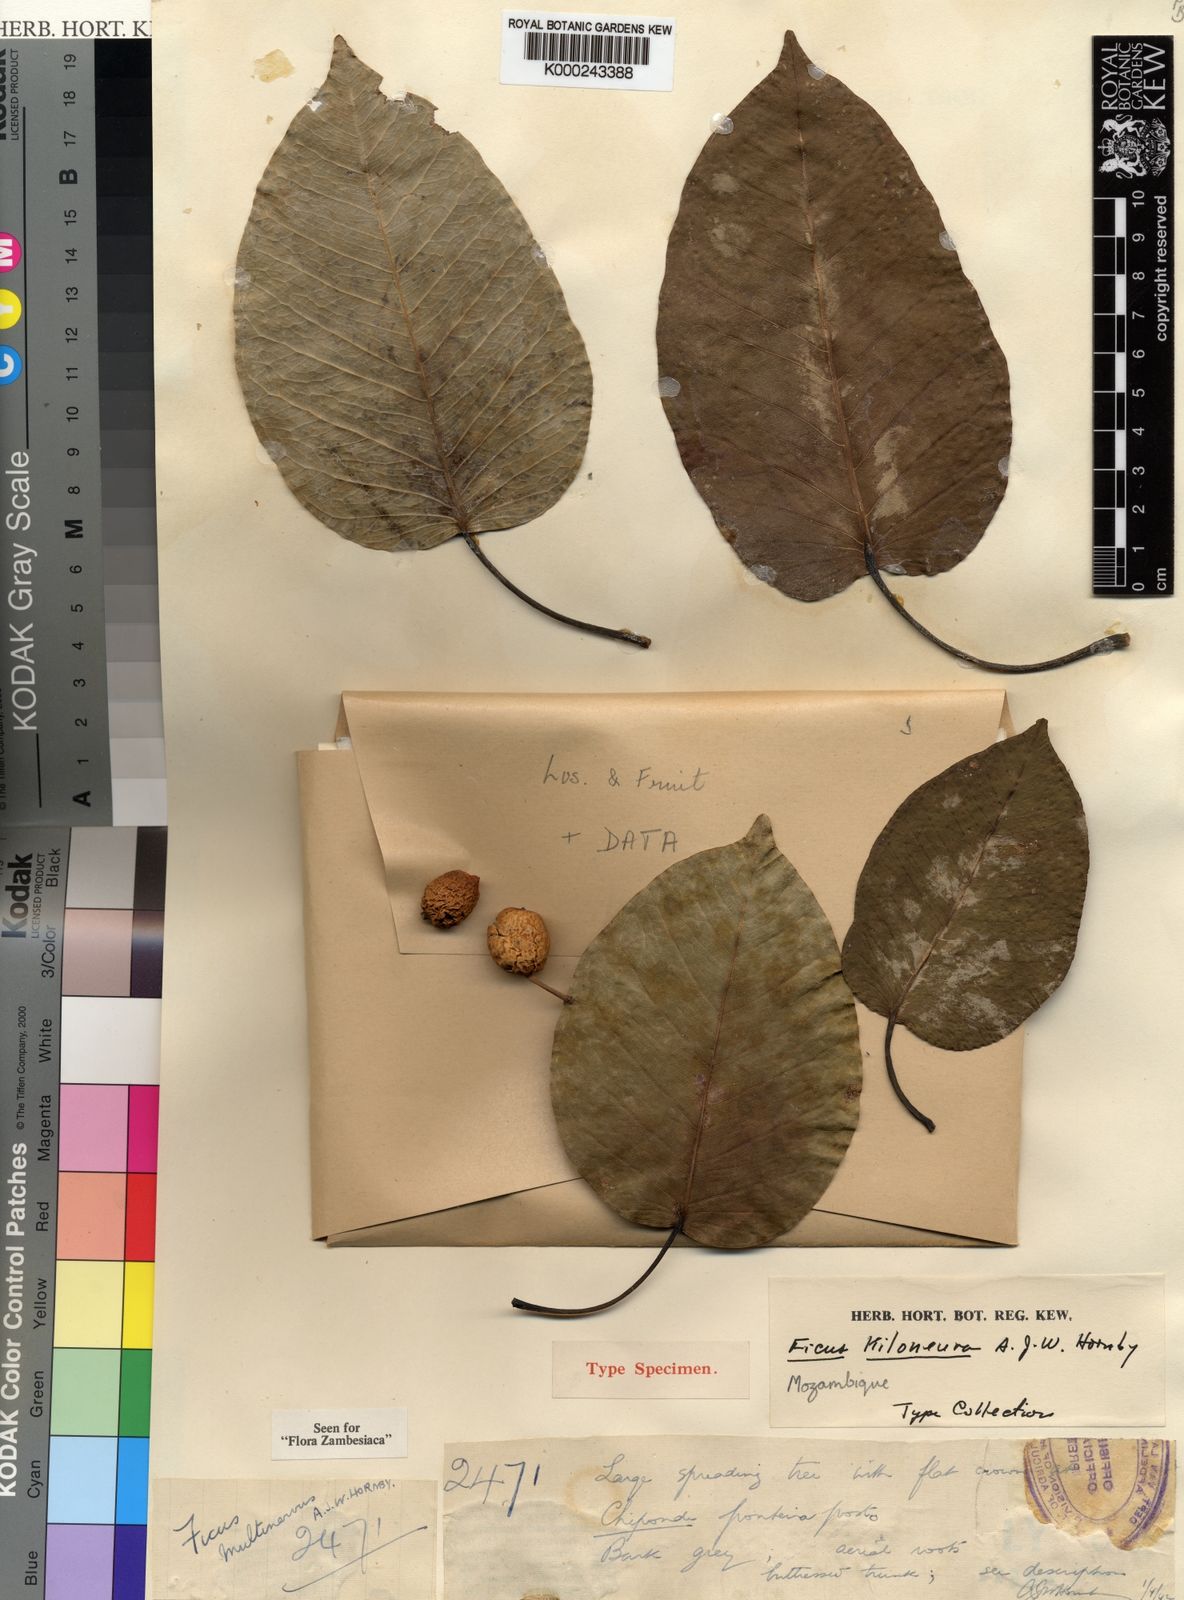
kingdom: Plantae
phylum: Tracheophyta
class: Magnoliopsida
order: Rosales
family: Moraceae
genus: Ficus
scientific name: Ficus fischeri
